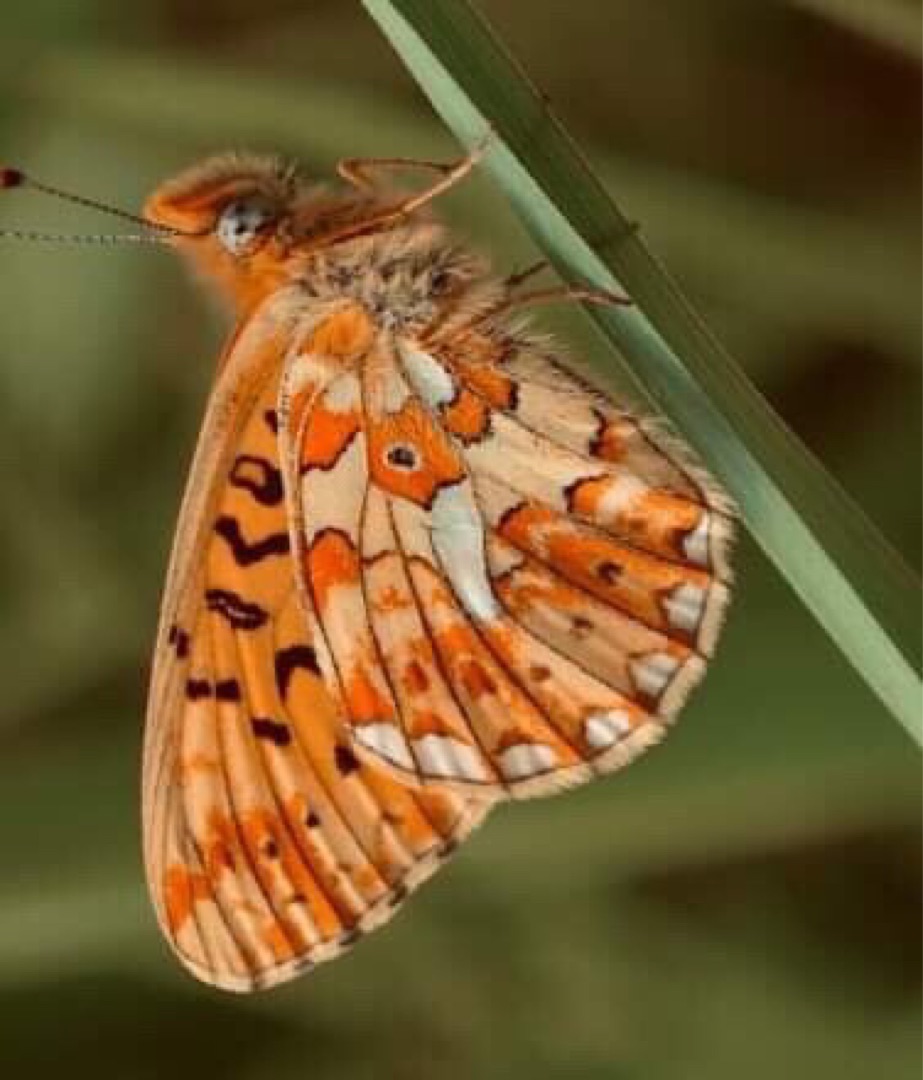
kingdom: Animalia
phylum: Arthropoda
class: Insecta
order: Lepidoptera
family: Nymphalidae
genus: Clossiana
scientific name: Clossiana euphrosyne
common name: Rødlig perlemorsommerfugl
